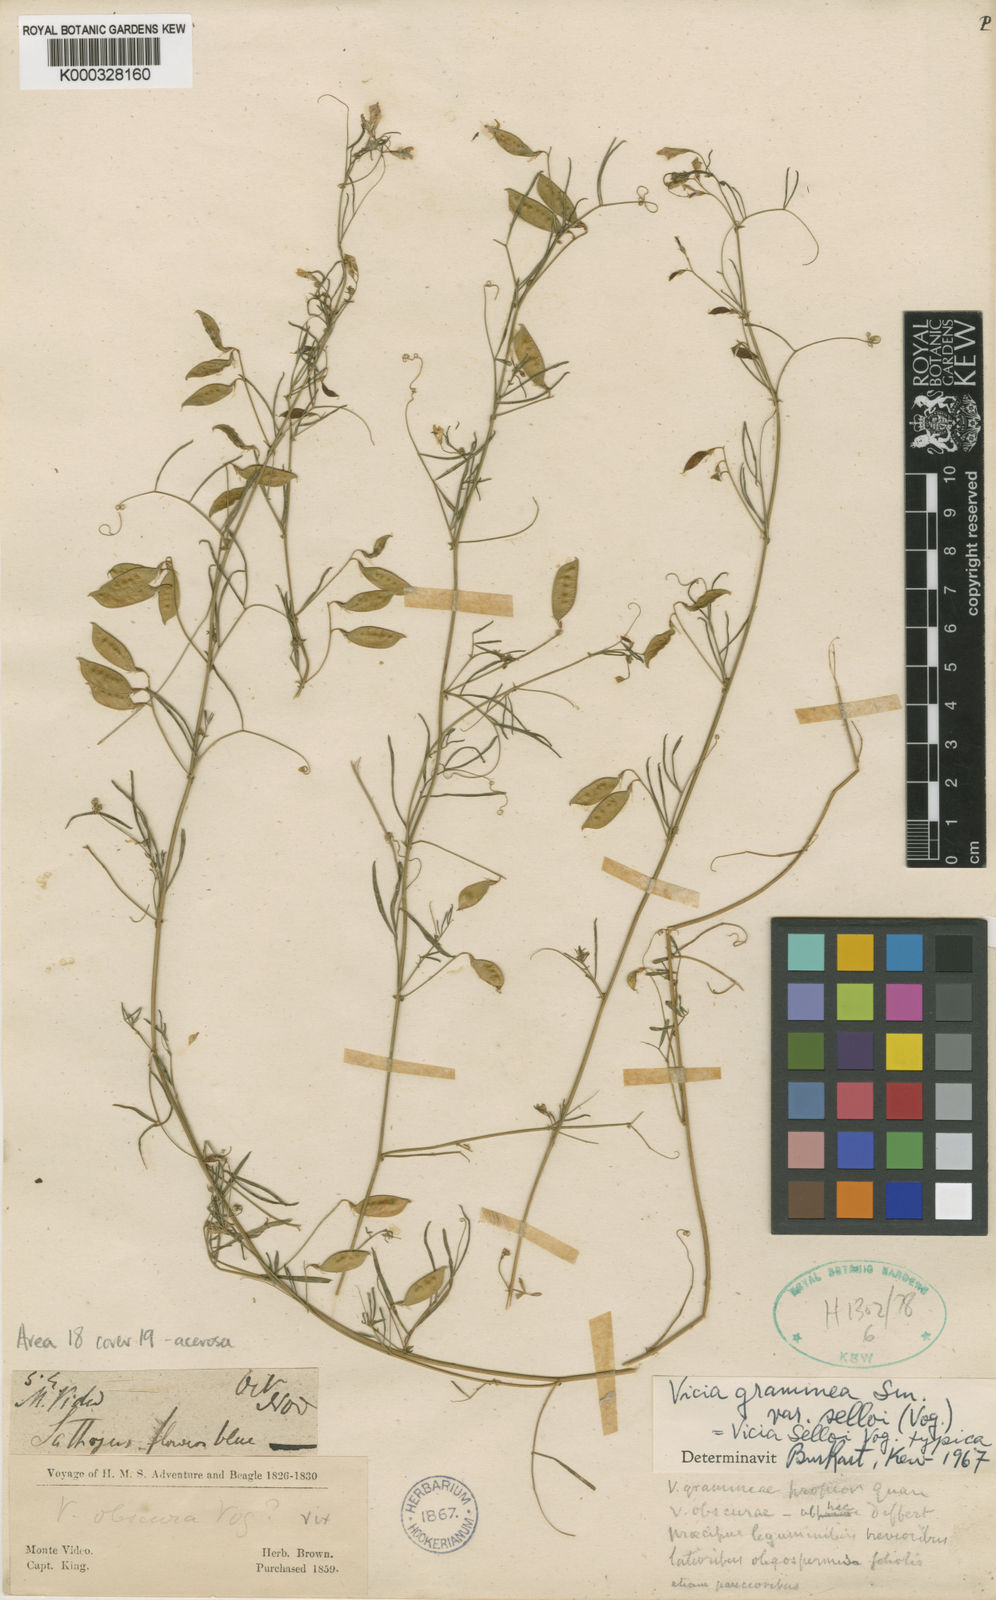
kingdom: Plantae
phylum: Tracheophyta
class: Magnoliopsida
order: Fabales
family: Fabaceae
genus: Vicia
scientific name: Vicia setifolia
